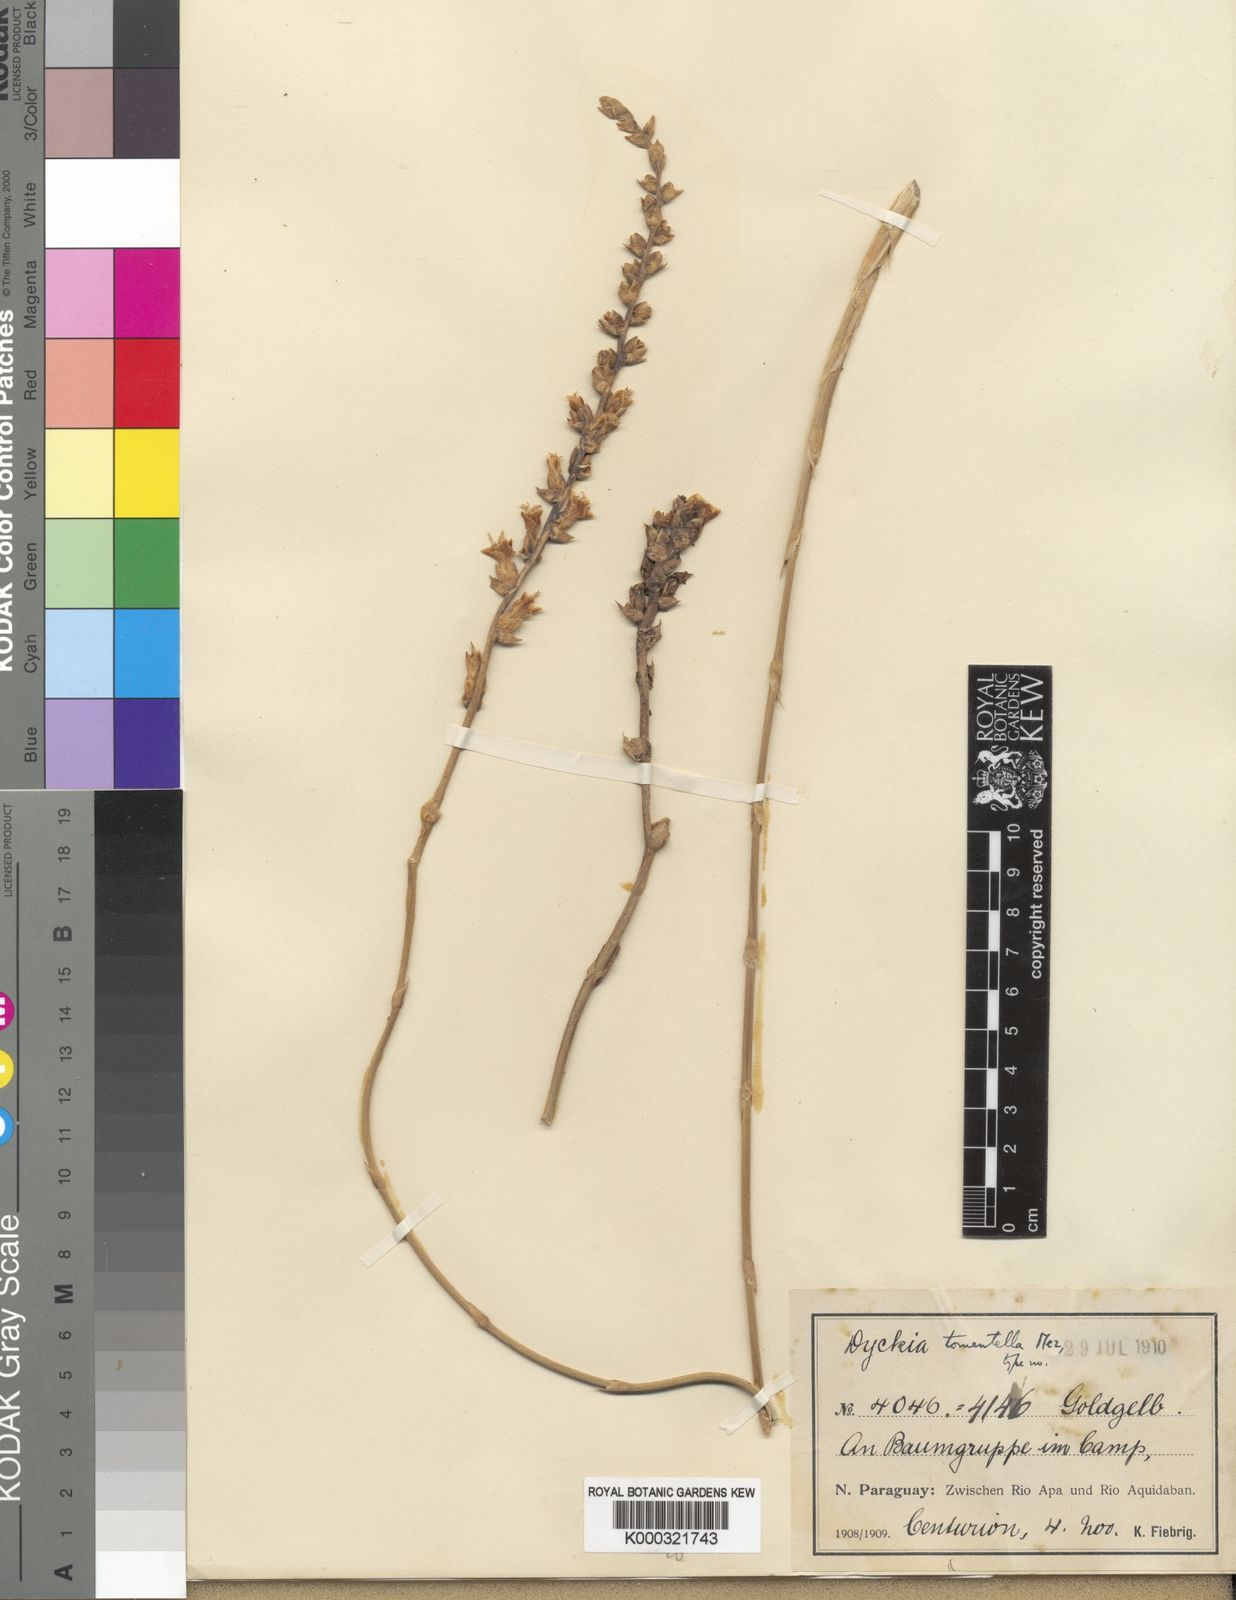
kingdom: Plantae
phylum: Tracheophyta
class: Liliopsida
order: Poales
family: Bromeliaceae
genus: Dyckia
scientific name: Dyckia tomentella
